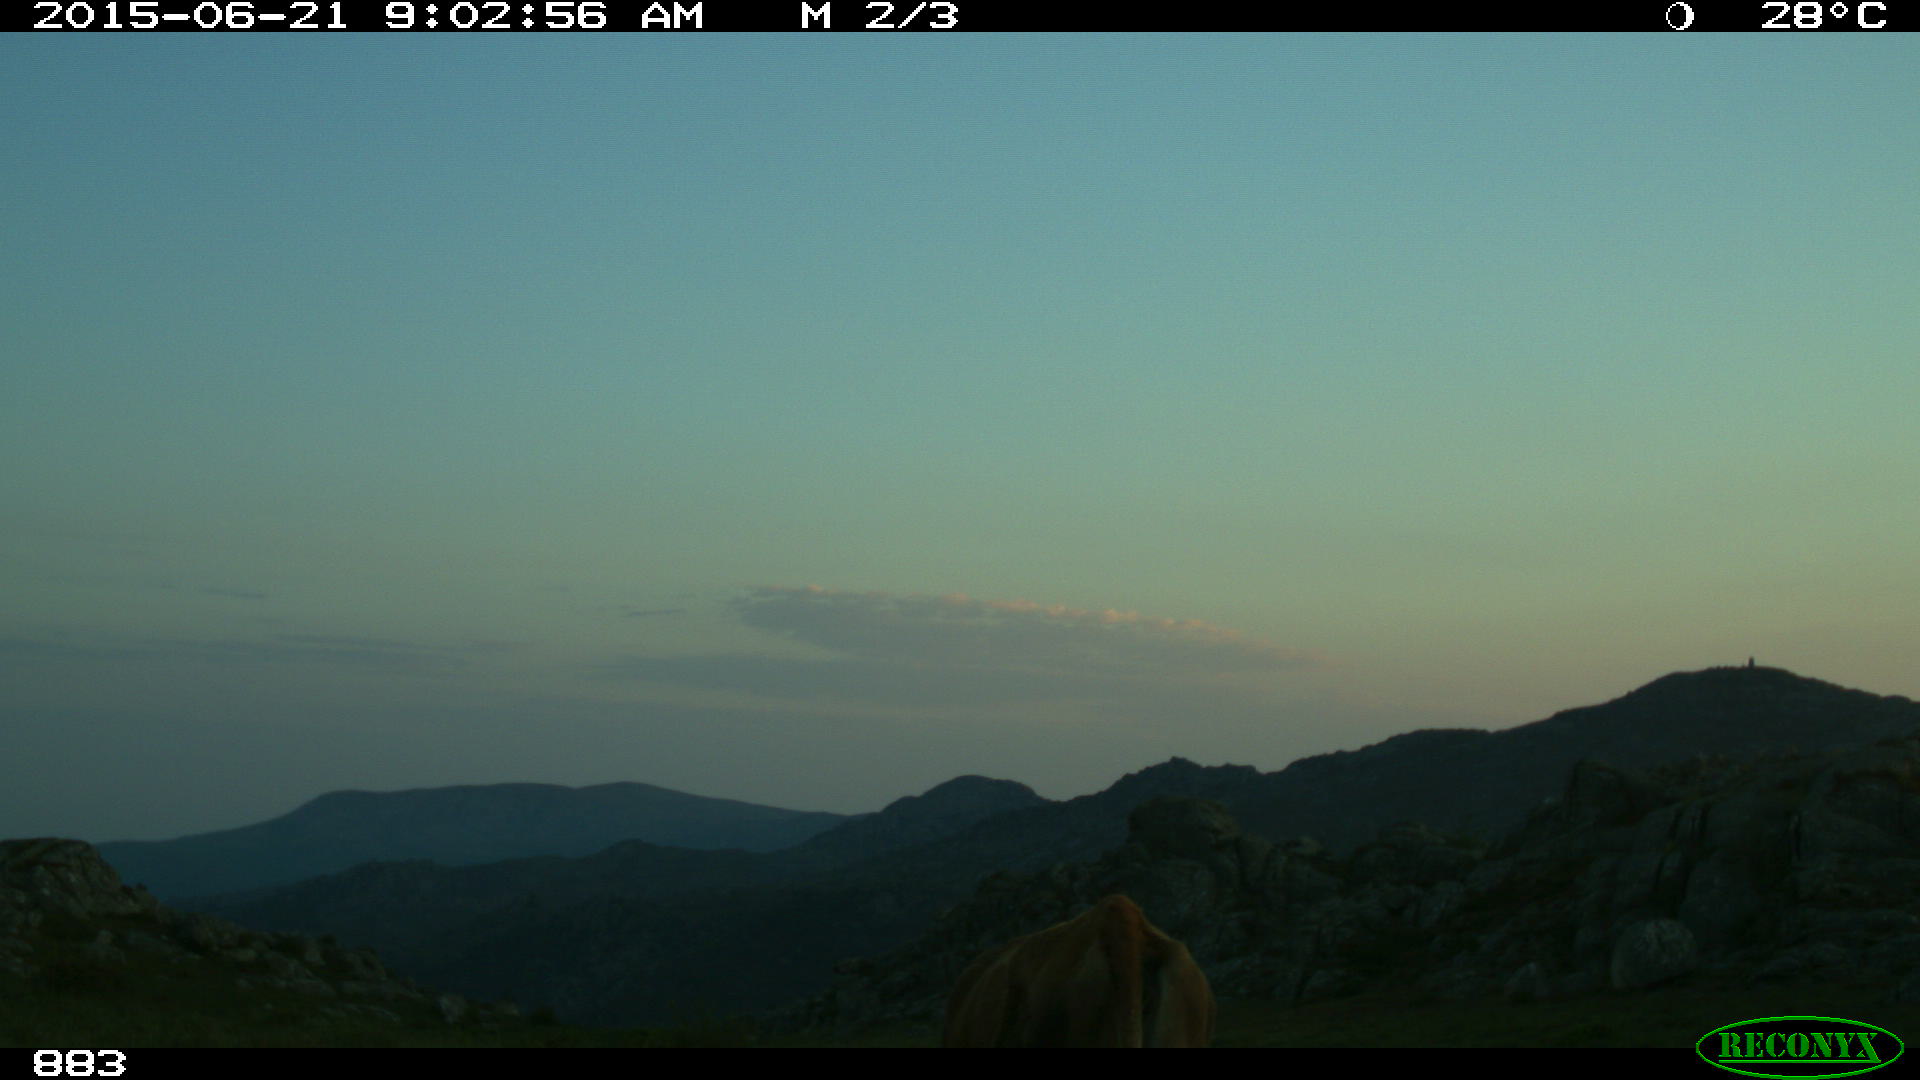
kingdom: Animalia
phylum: Chordata
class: Mammalia
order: Artiodactyla
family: Bovidae
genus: Bos
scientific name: Bos taurus
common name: Domesticated cattle
